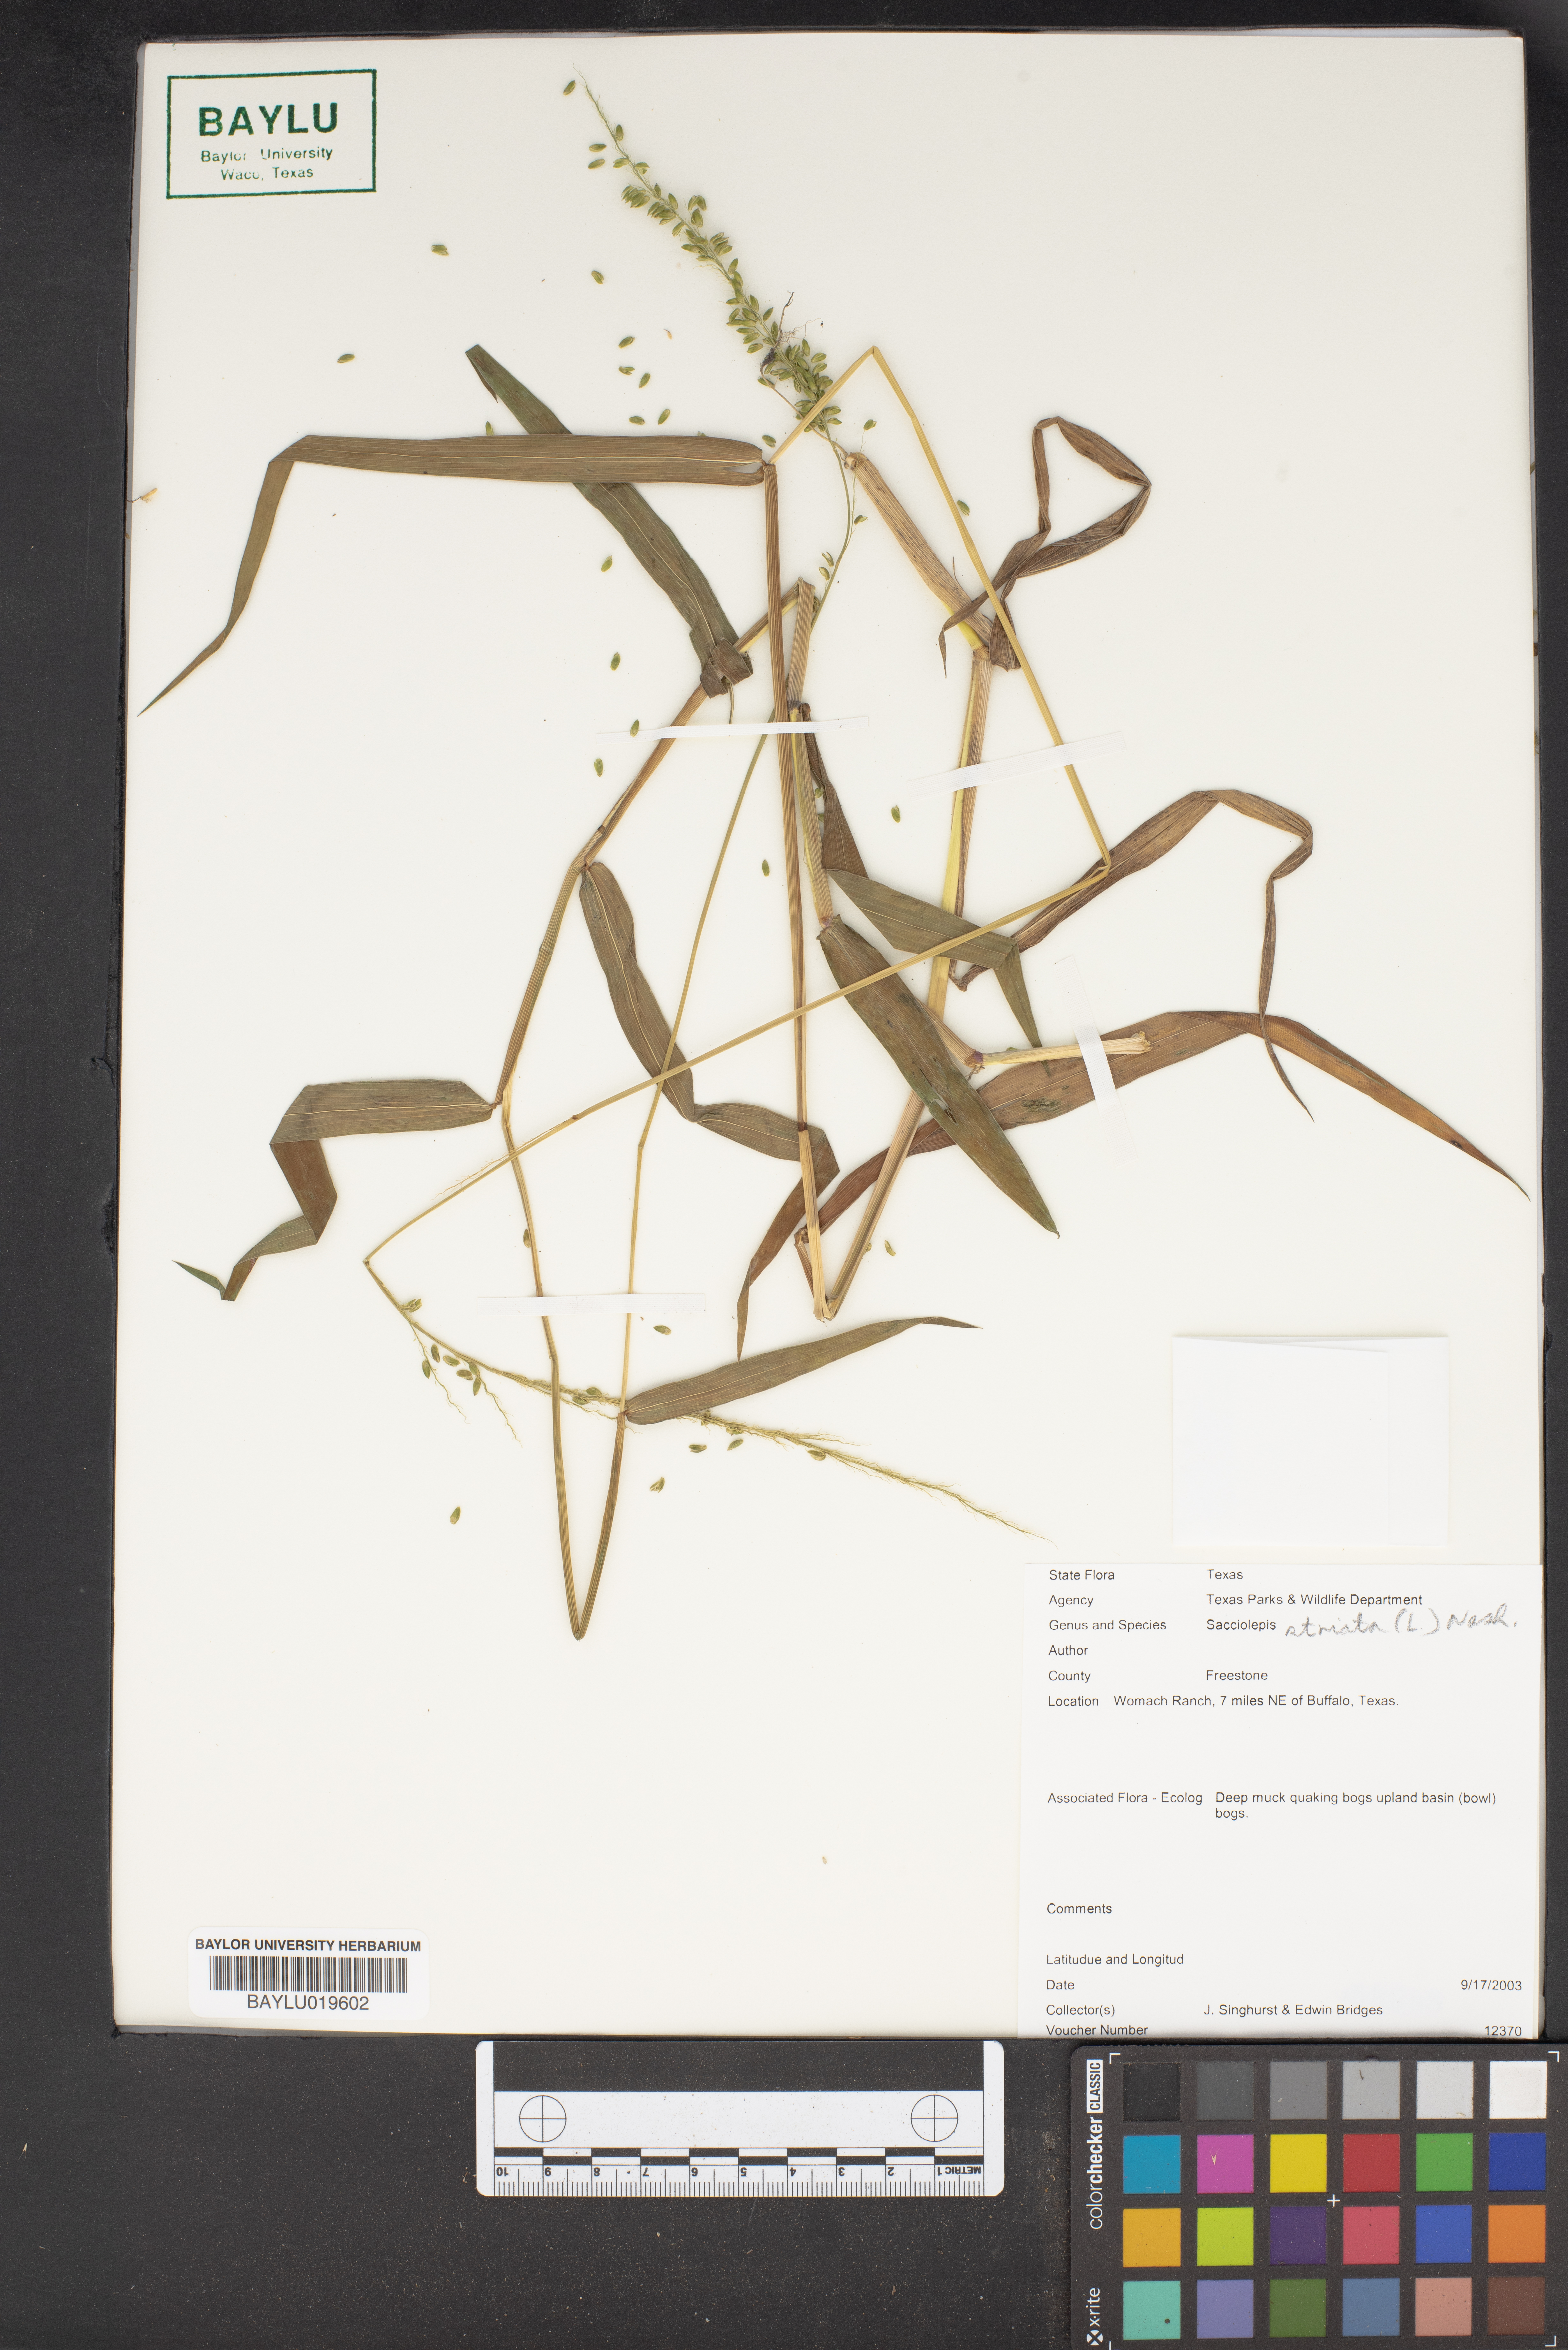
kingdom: Plantae
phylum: Tracheophyta
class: Liliopsida
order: Poales
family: Poaceae
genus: Sacciolepis
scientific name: Sacciolepis striata
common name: American cupscale
